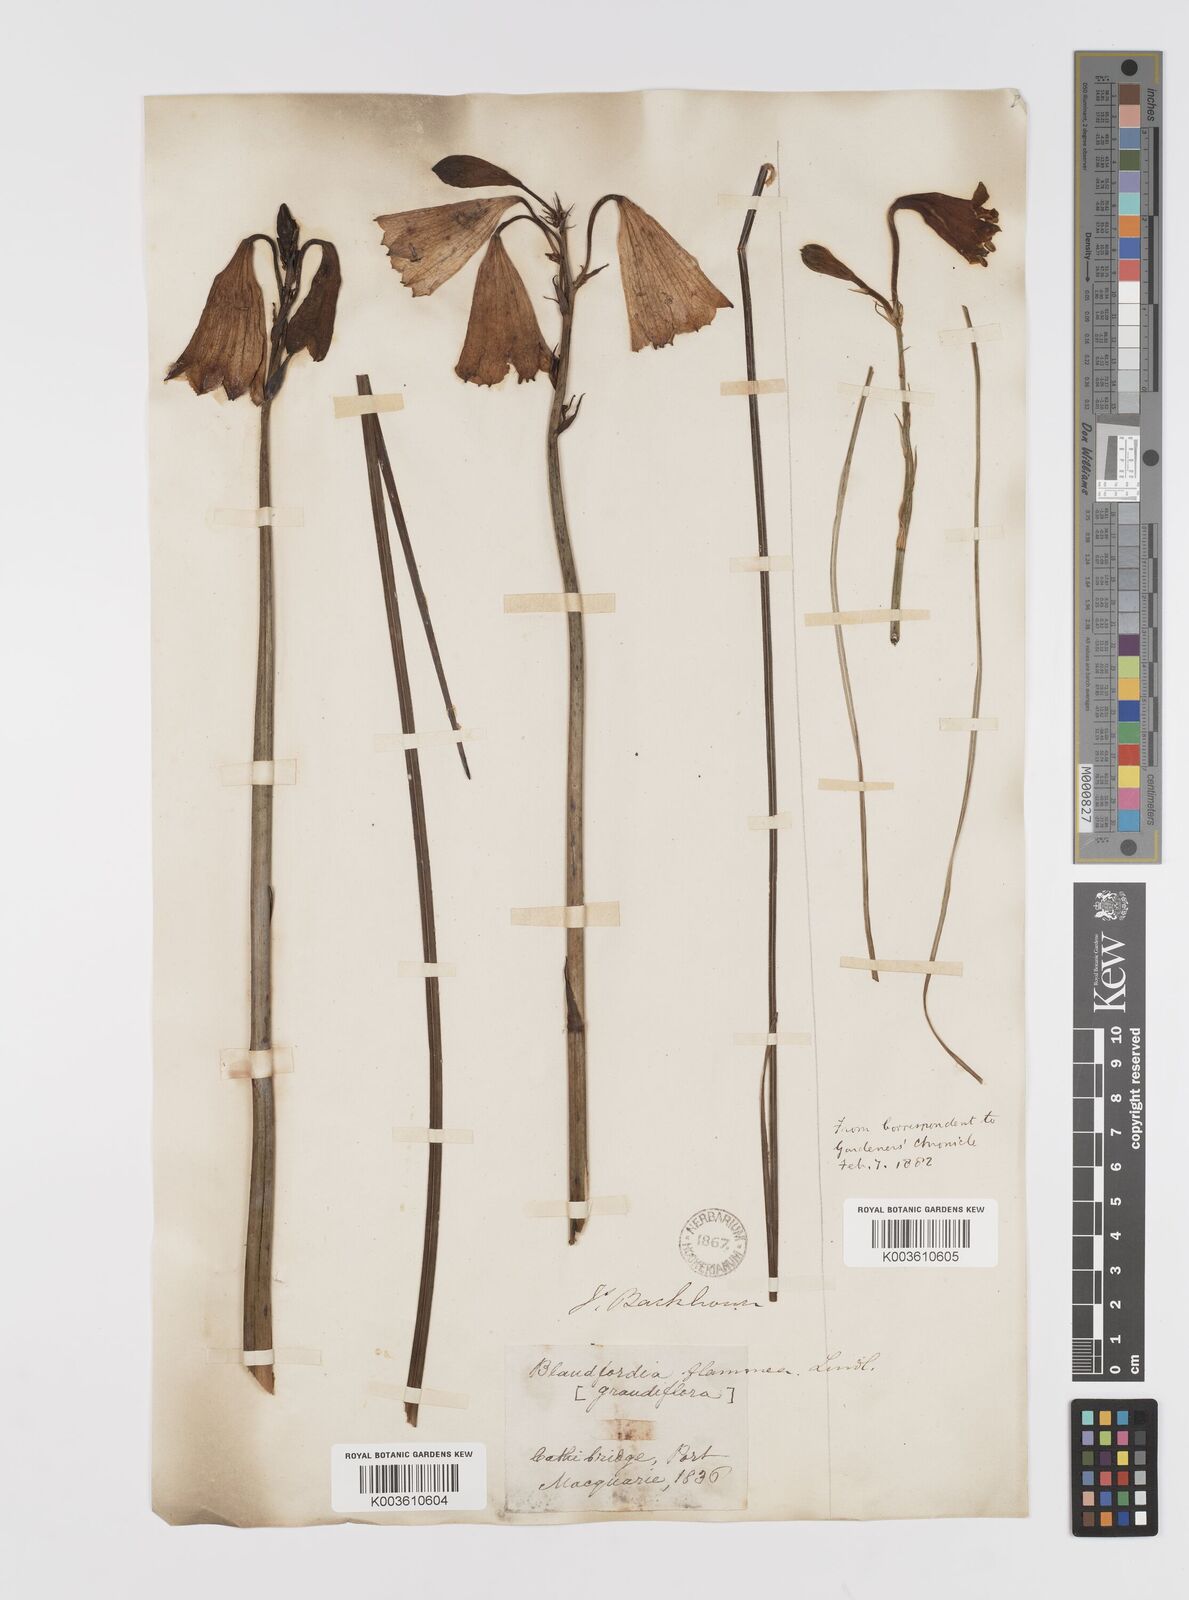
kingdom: Plantae
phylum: Tracheophyta
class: Liliopsida
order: Asparagales
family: Blandfordiaceae
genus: Blandfordia
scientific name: Blandfordia grandiflora
